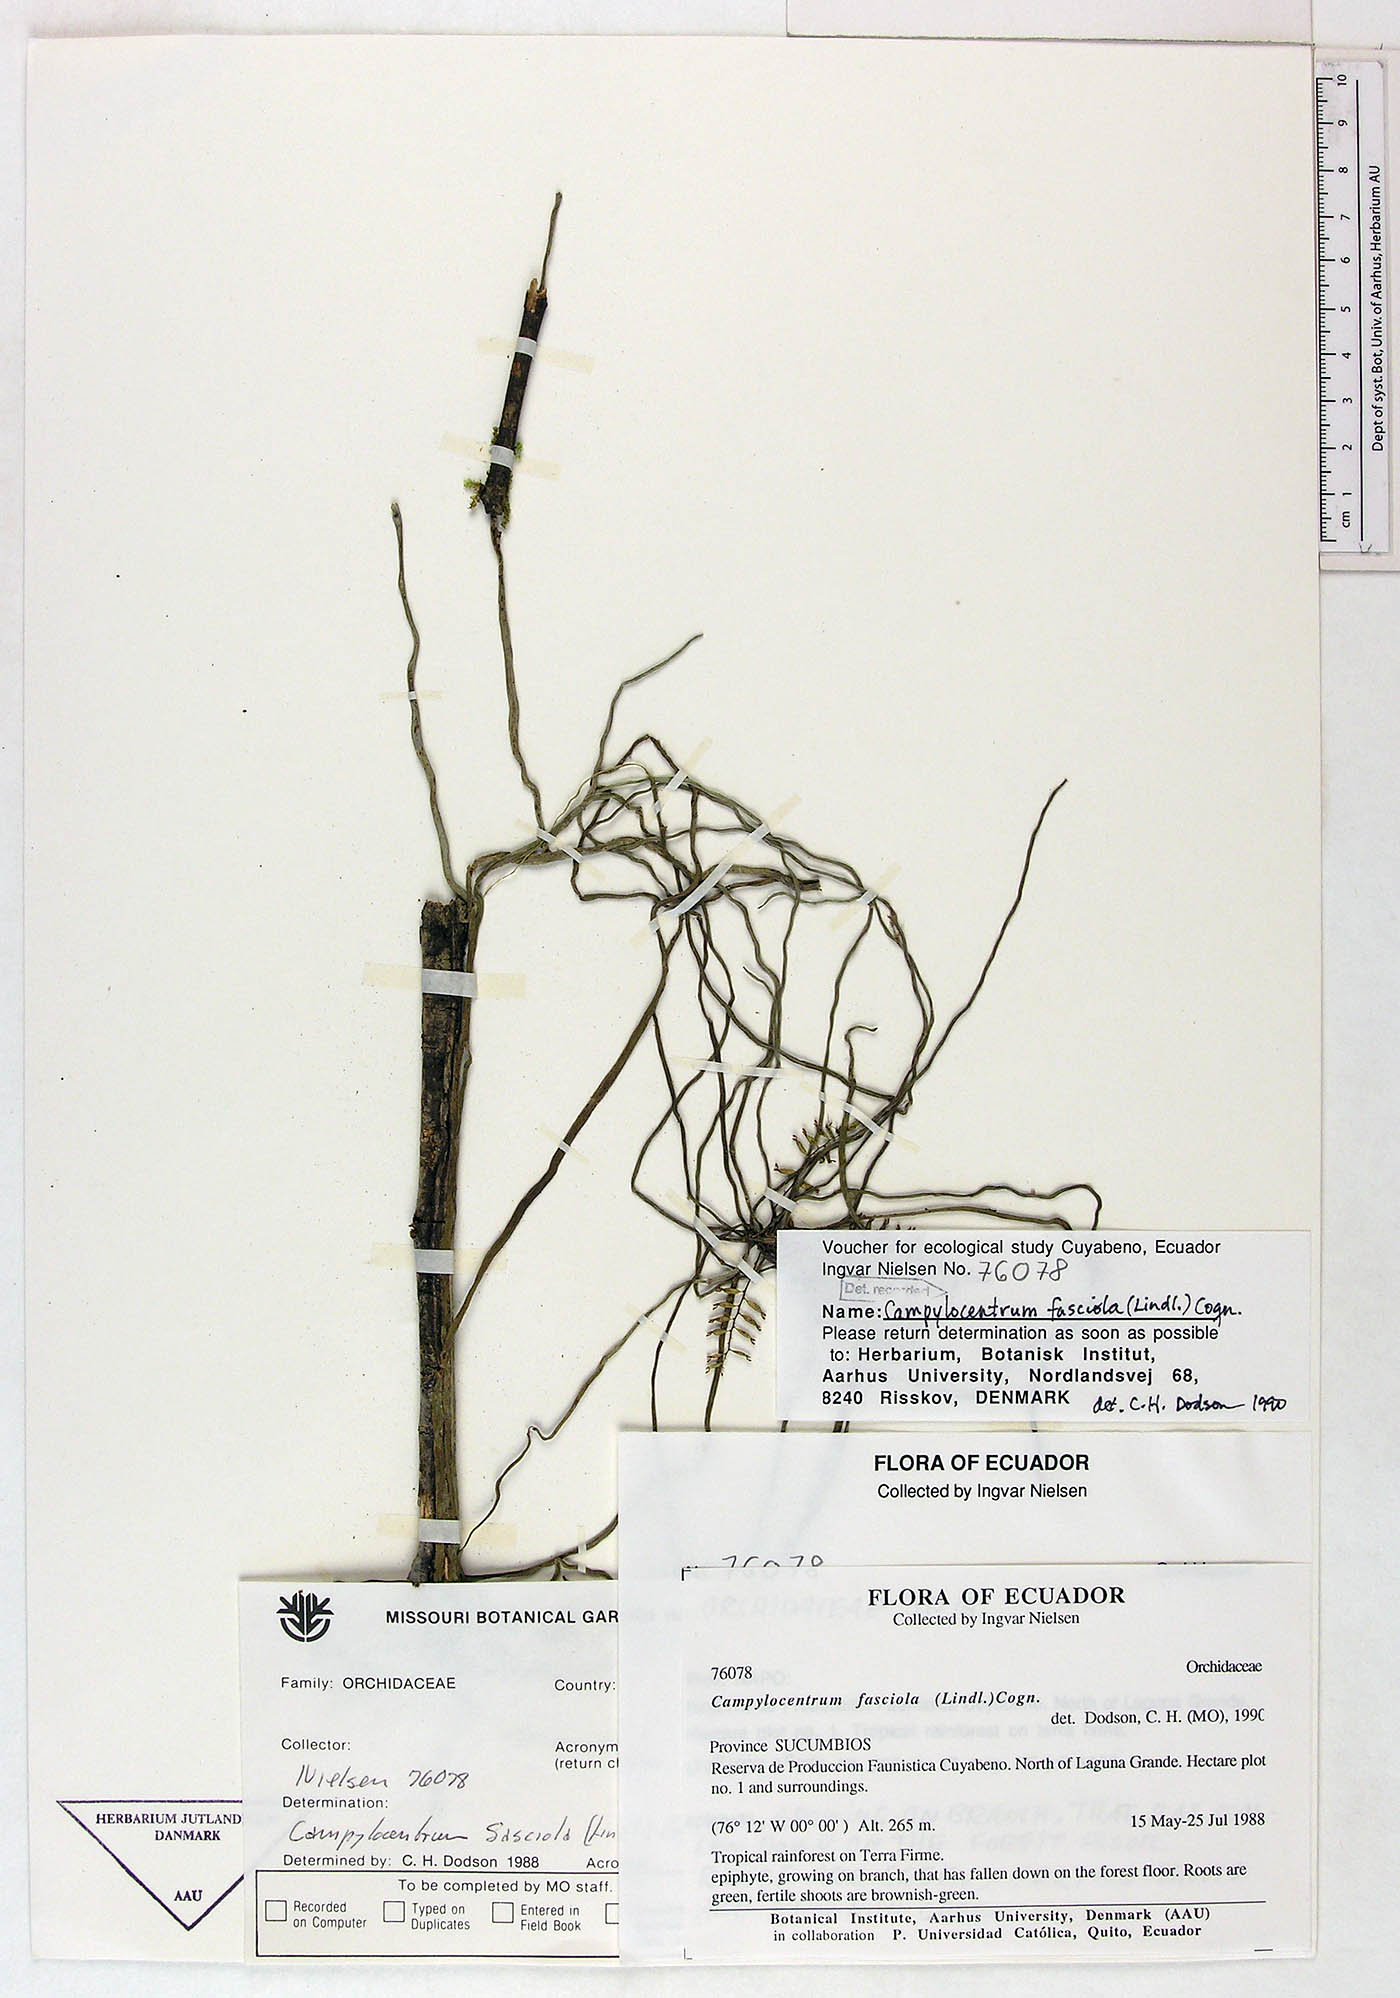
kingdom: Plantae
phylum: Tracheophyta
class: Liliopsida
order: Asparagales
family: Orchidaceae
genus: Campylocentrum
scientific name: Campylocentrum fasciola
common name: Arboreal bentspur orchid
